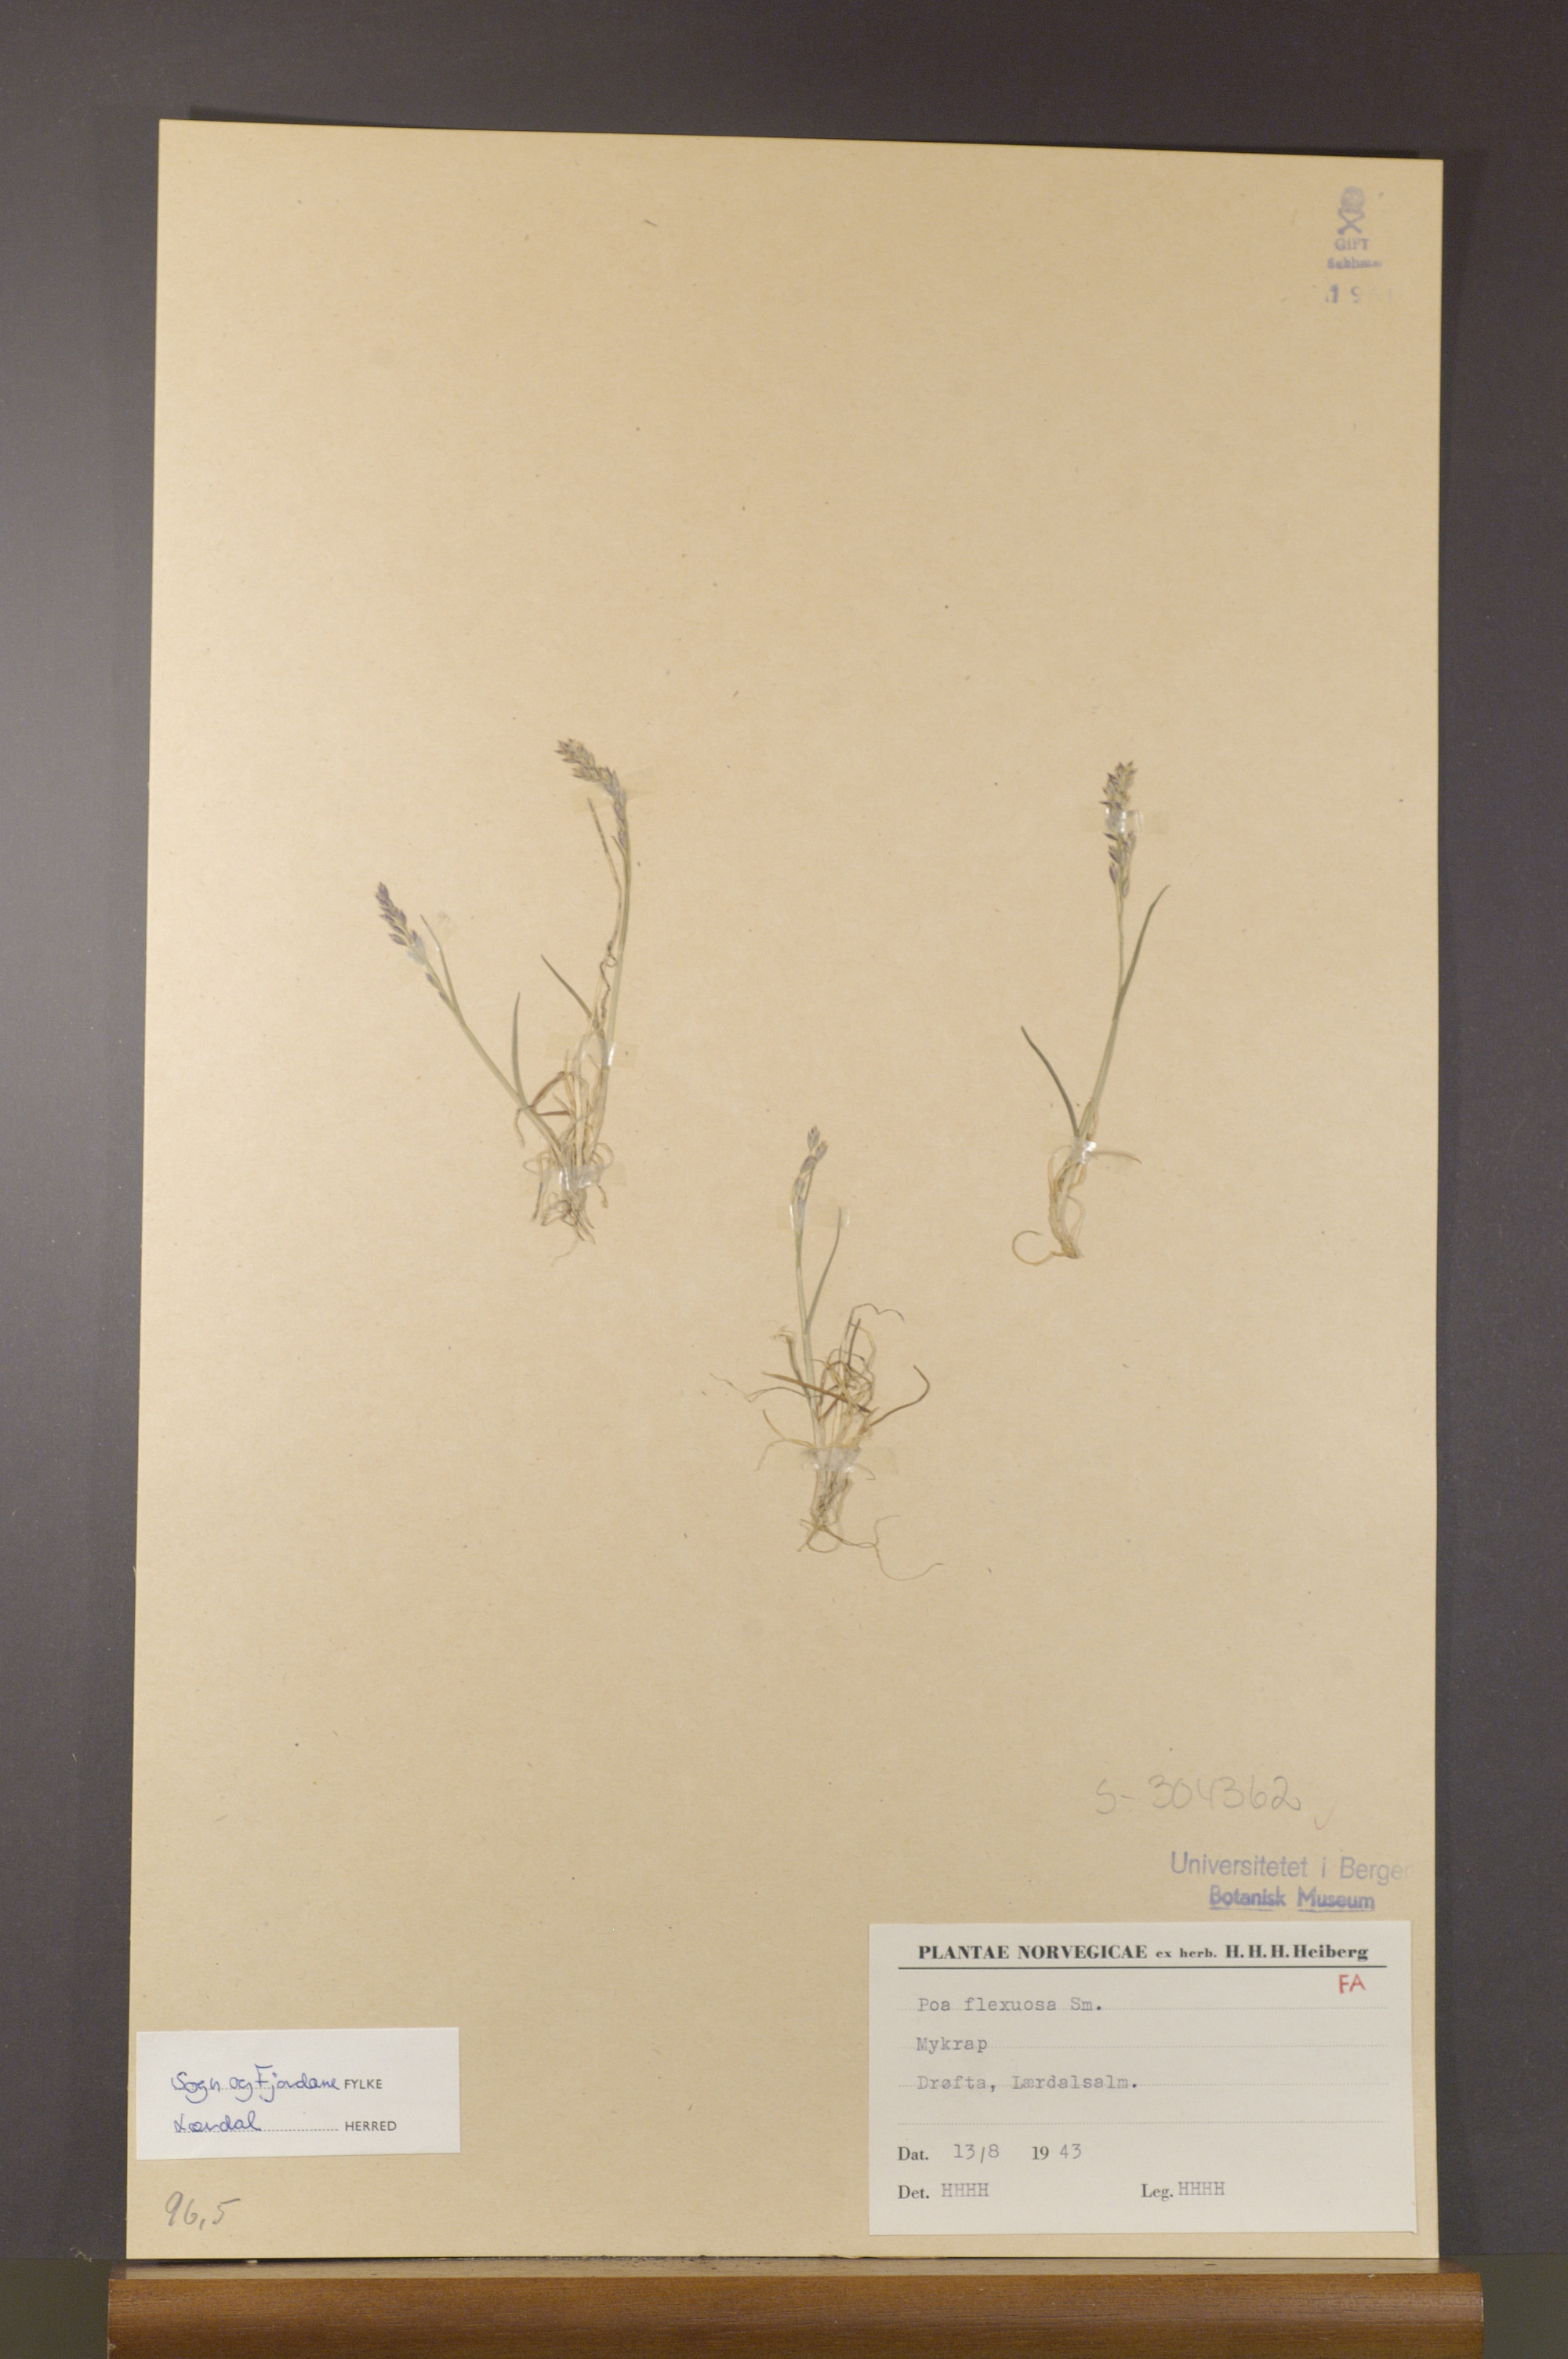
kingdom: Plantae
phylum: Tracheophyta
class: Liliopsida
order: Poales
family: Poaceae
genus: Poa
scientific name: Poa flexuosa
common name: Wavy meadow-grass
